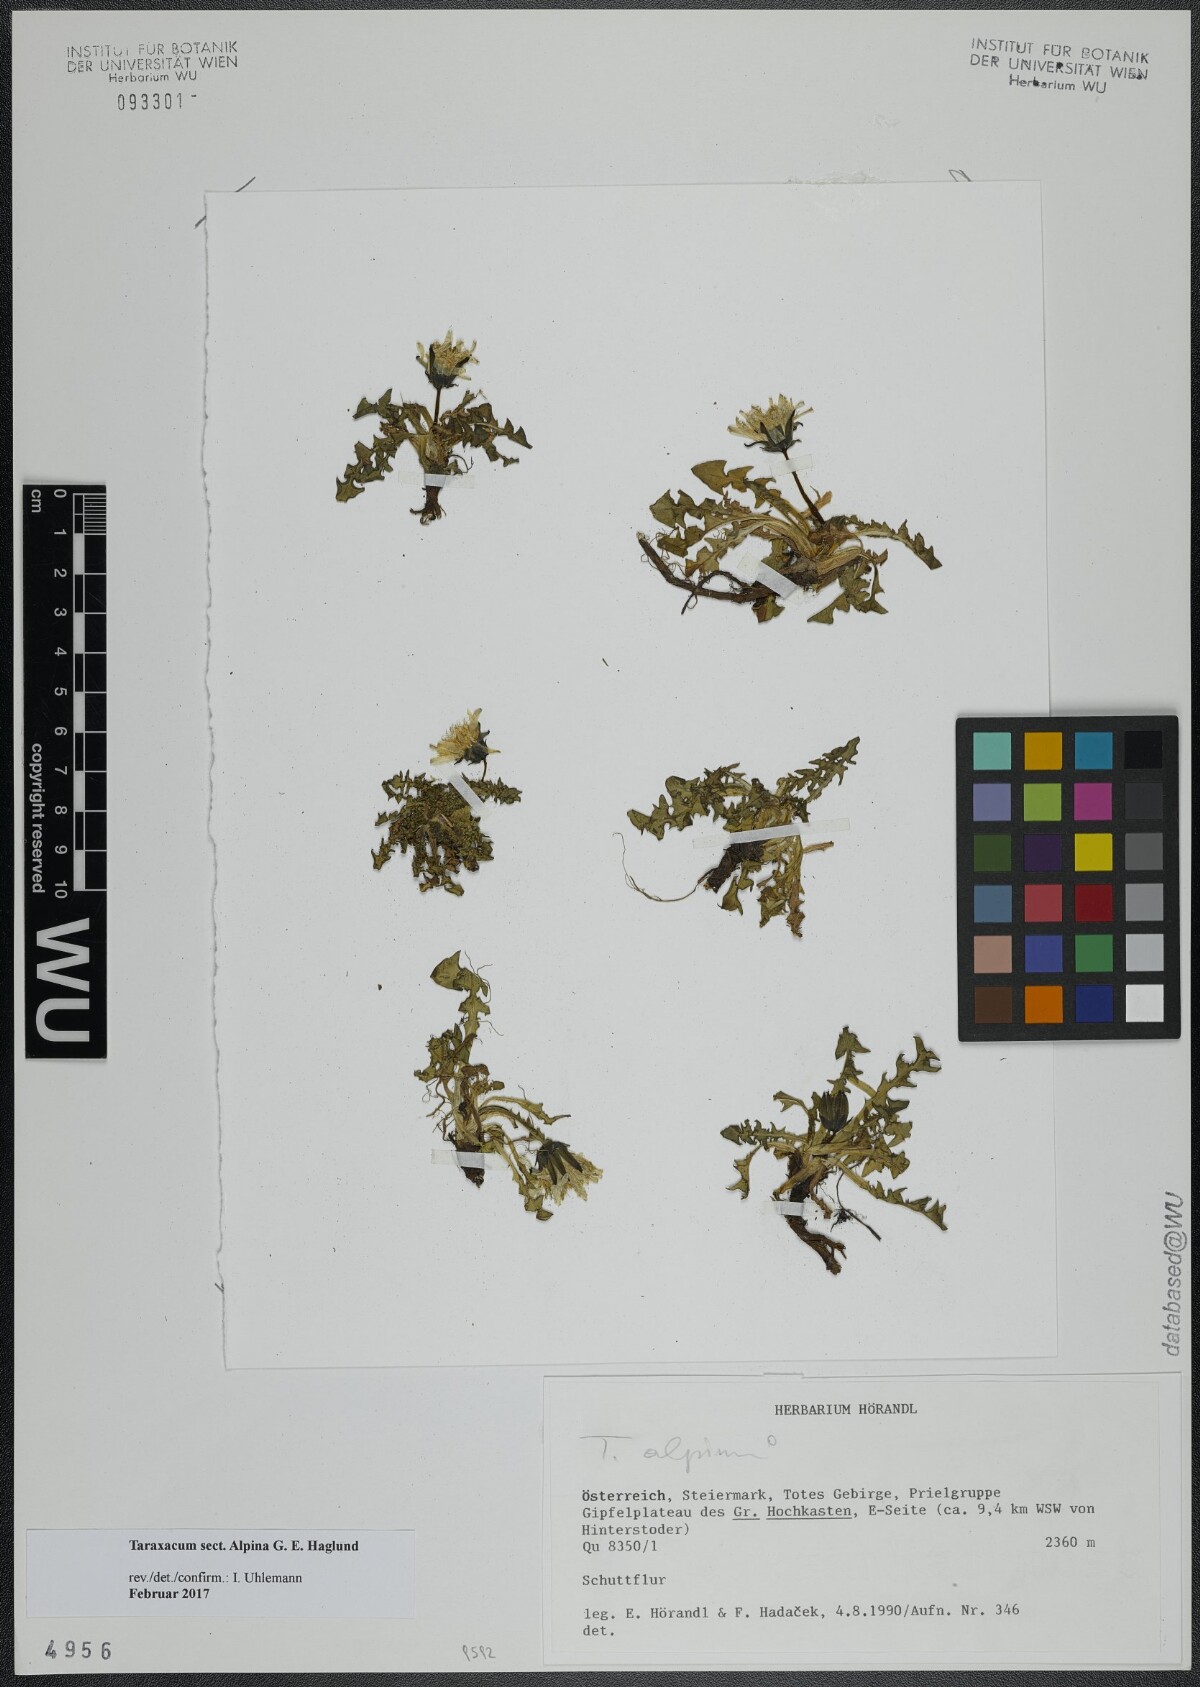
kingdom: Plantae
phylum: Tracheophyta
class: Magnoliopsida
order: Asterales
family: Asteraceae
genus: Taraxacum
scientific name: Taraxacum
